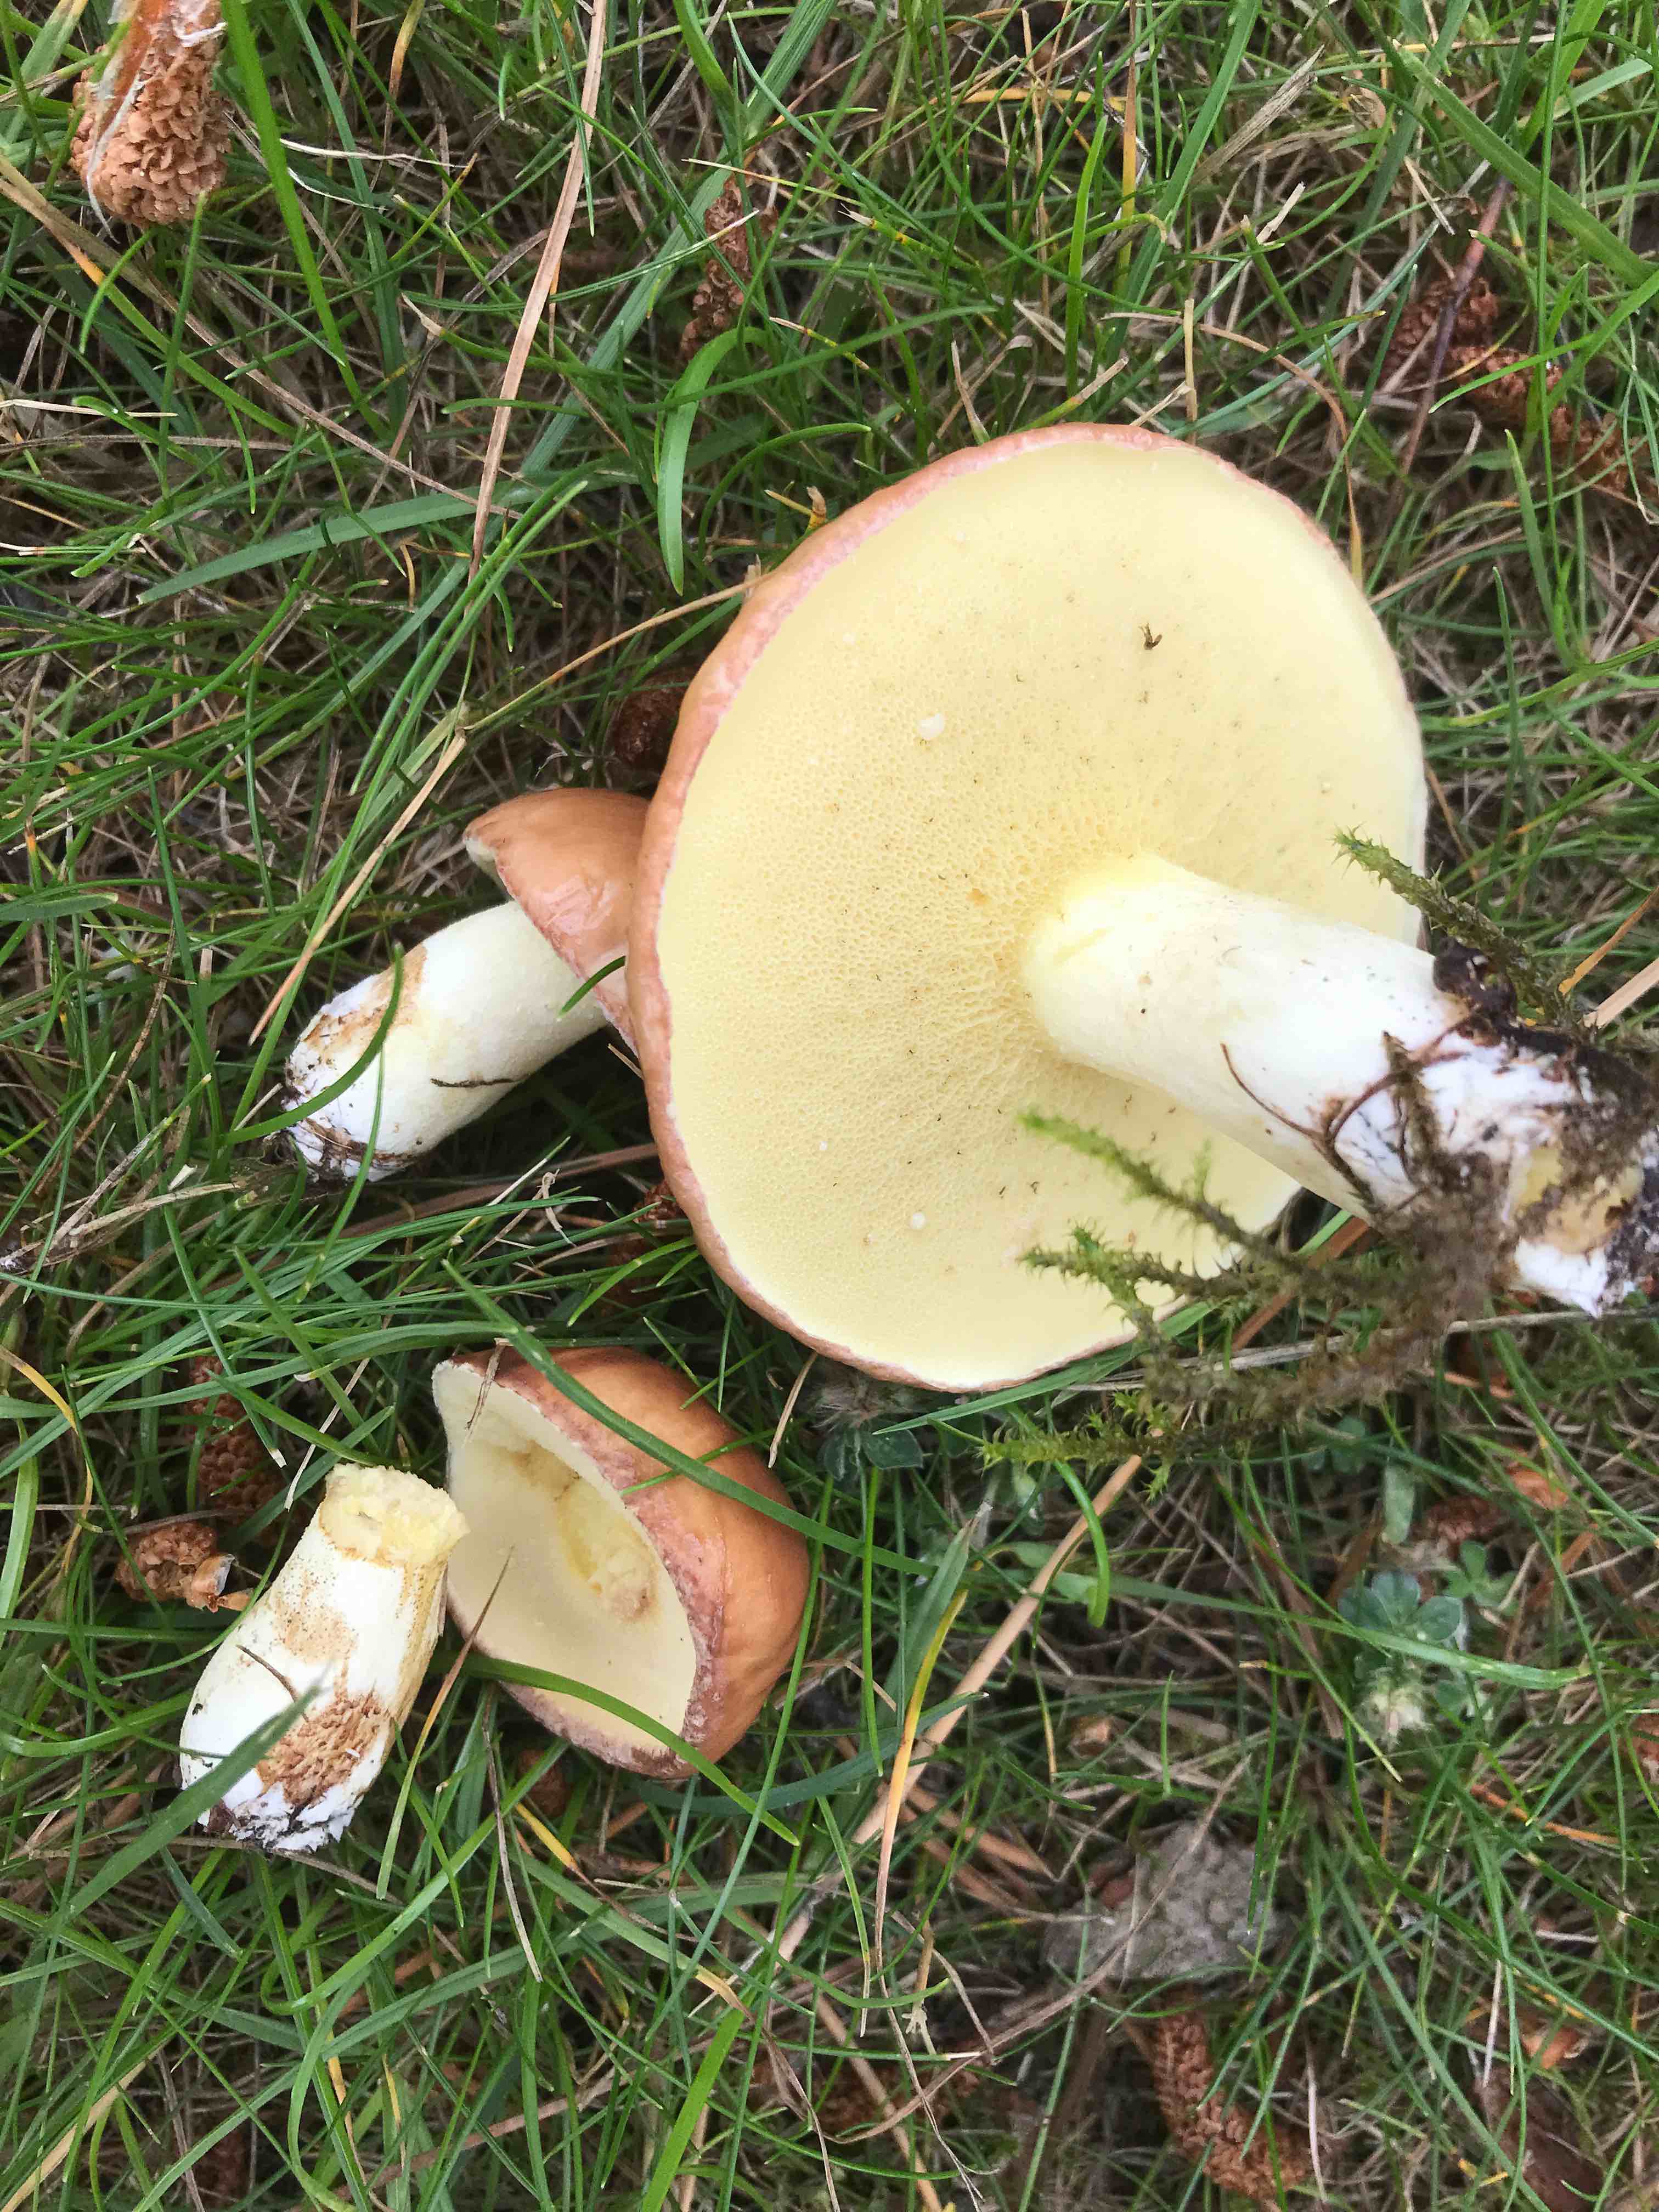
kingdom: Fungi
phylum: Basidiomycota
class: Agaricomycetes
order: Boletales
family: Suillaceae
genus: Suillus
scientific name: Suillus granulatus
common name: kornet slimrørhat
